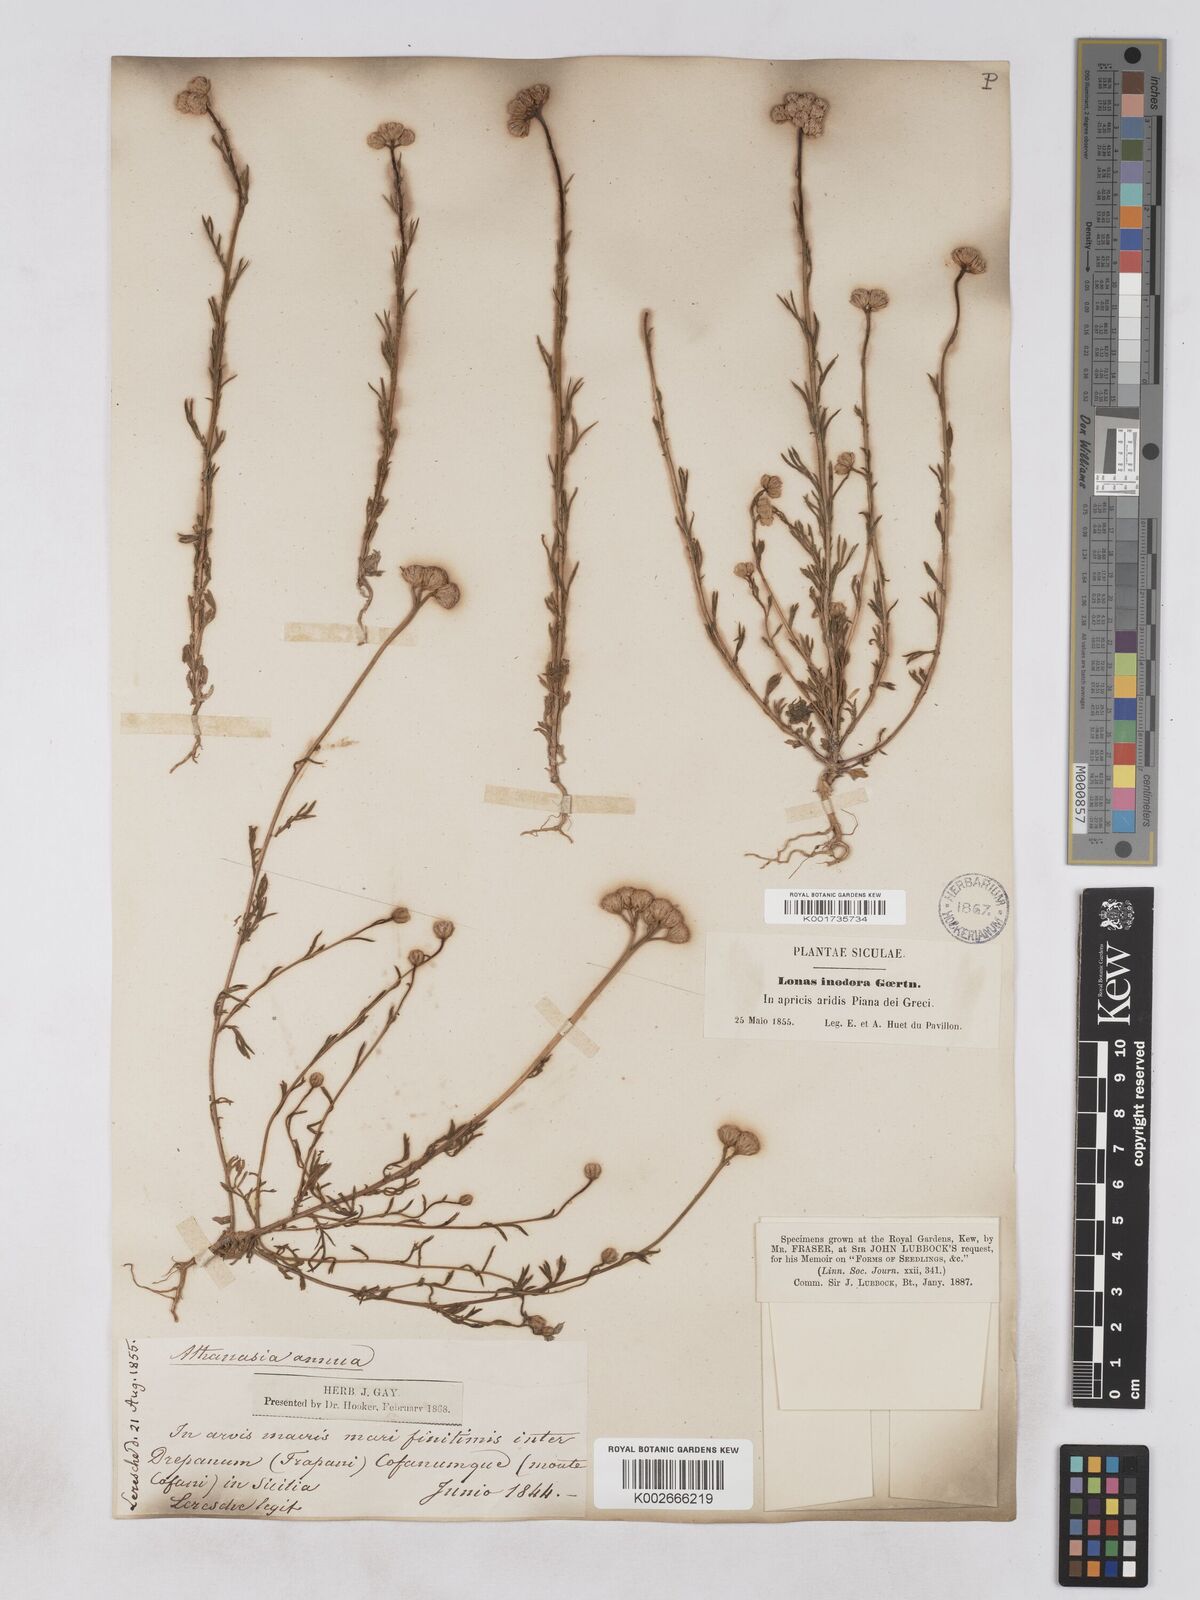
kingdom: Plantae
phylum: Tracheophyta
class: Magnoliopsida
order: Asterales
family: Asteraceae
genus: Lonas
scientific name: Lonas
